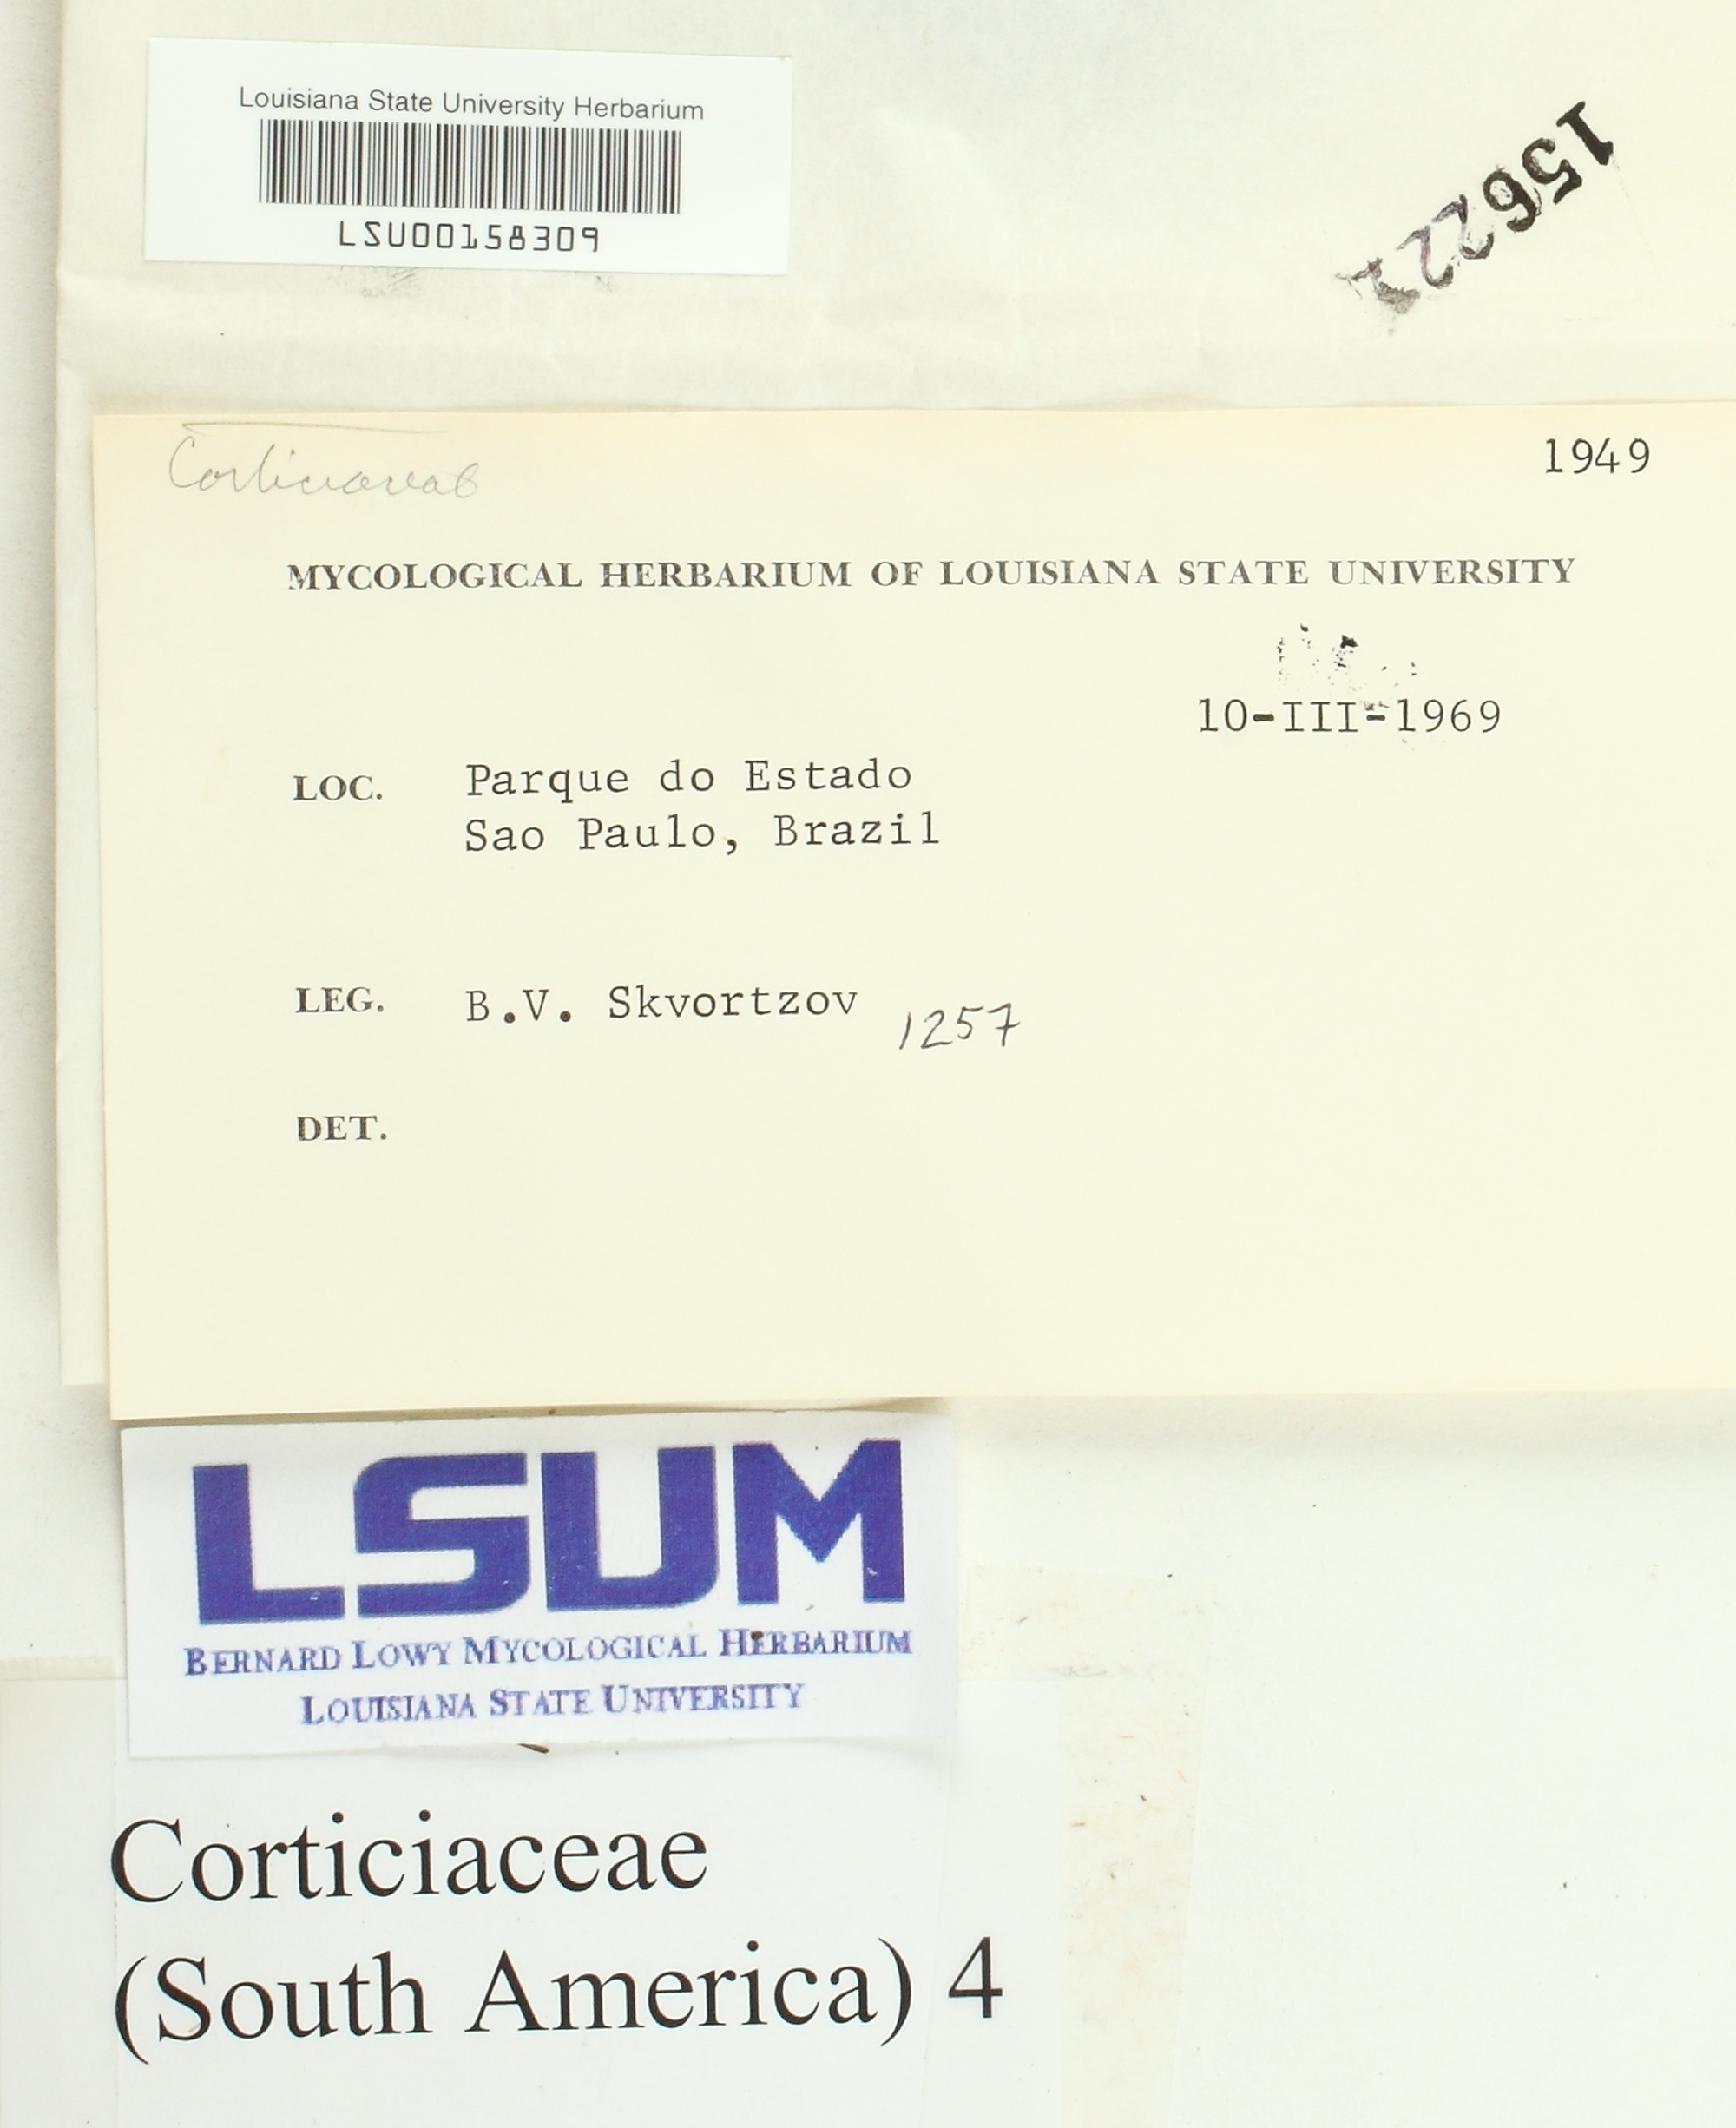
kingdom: Fungi
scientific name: Fungi
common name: Fungi
